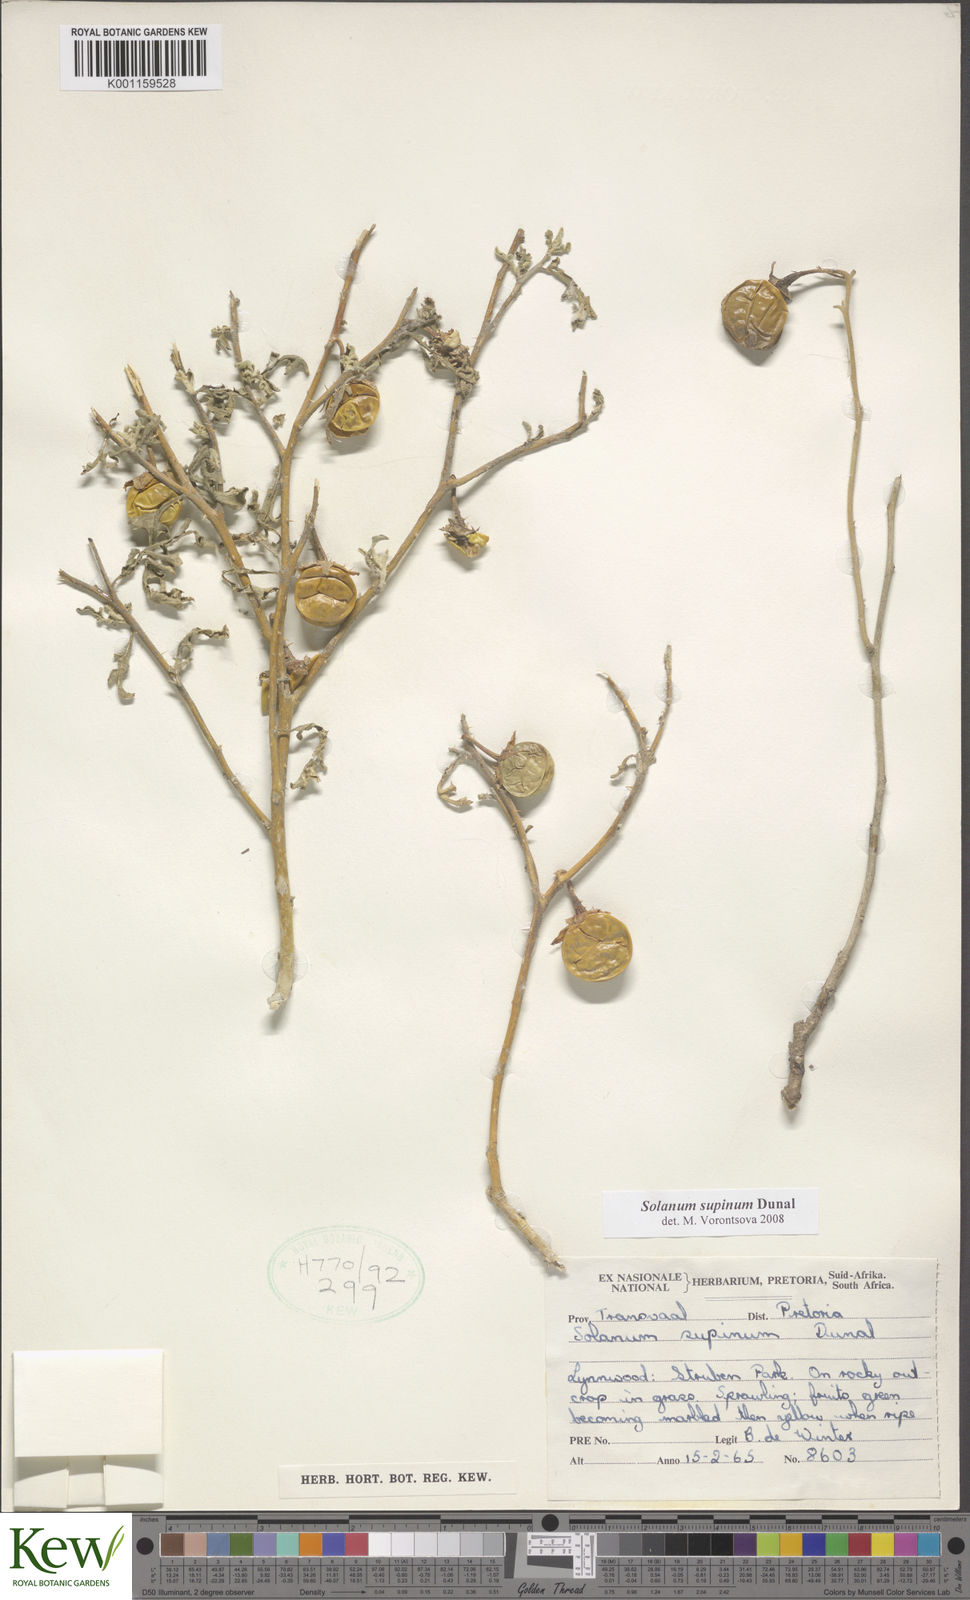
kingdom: Plantae
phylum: Tracheophyta
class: Magnoliopsida
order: Solanales
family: Solanaceae
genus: Solanum
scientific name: Solanum supinum
